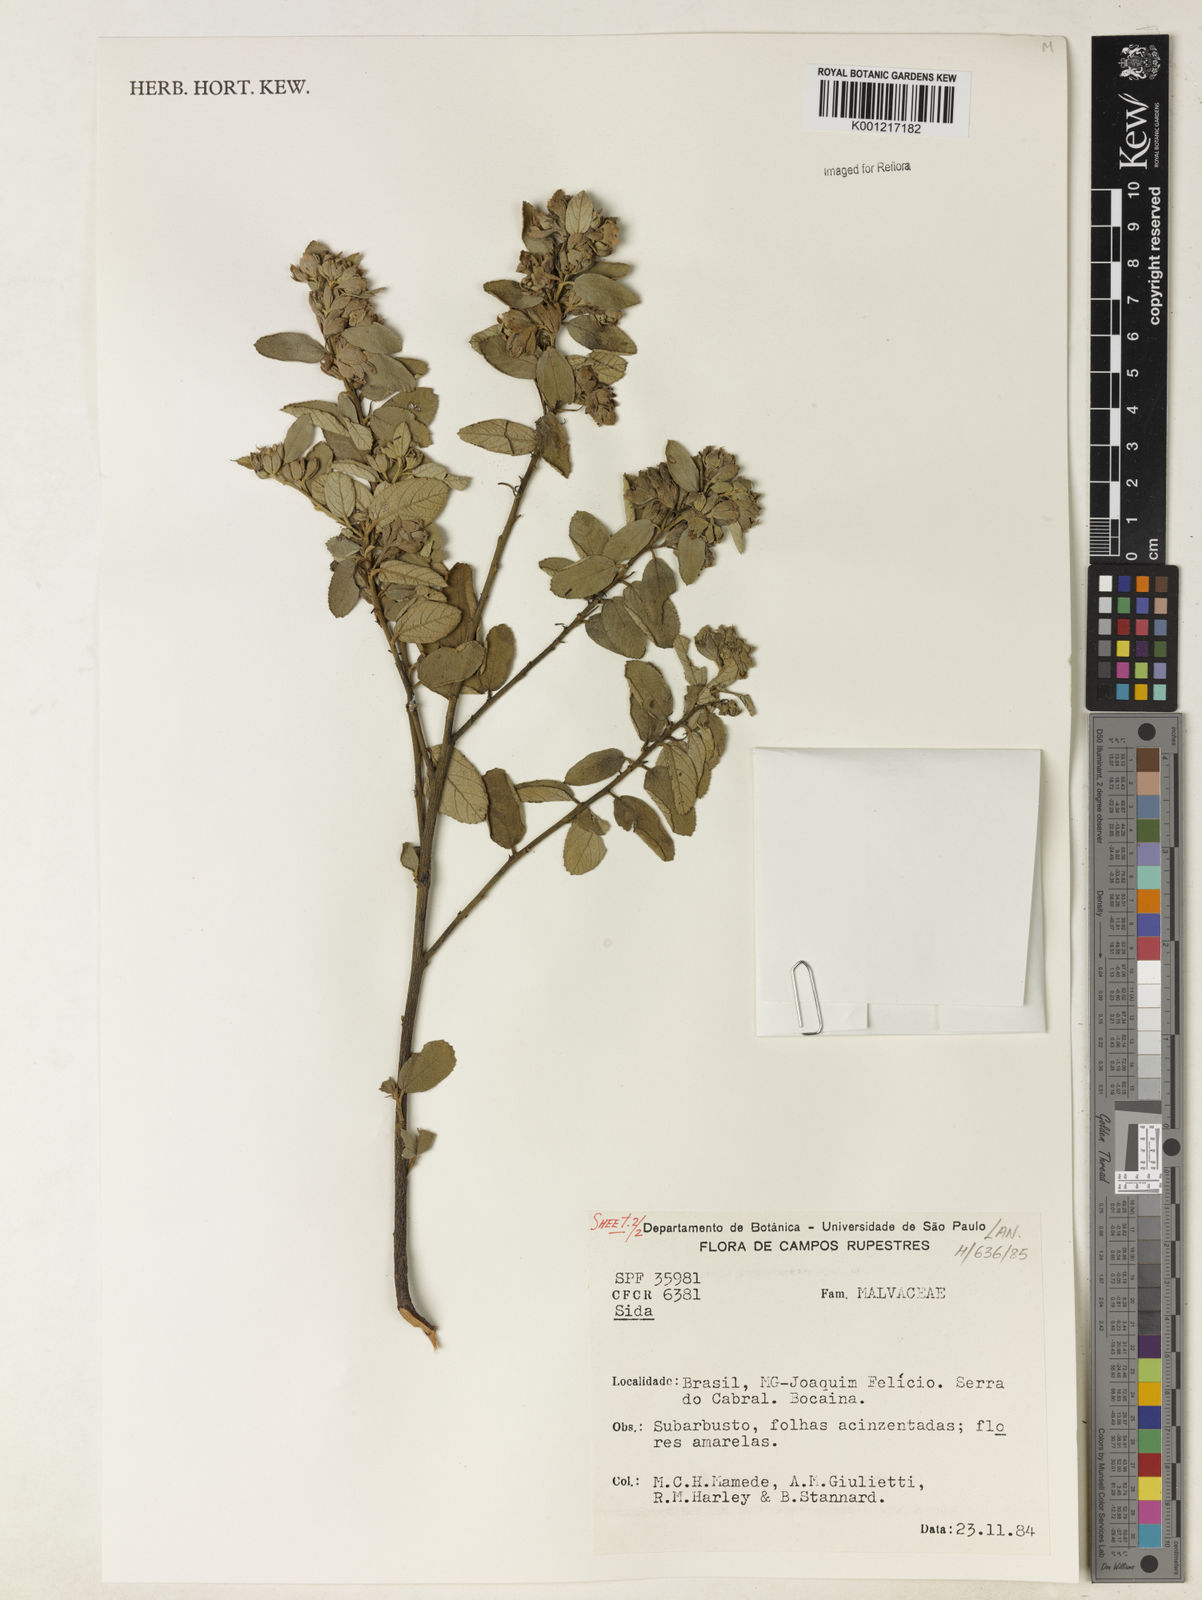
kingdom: Plantae
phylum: Tracheophyta
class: Magnoliopsida
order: Malvales
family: Malvaceae
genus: Sida
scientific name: Sida
